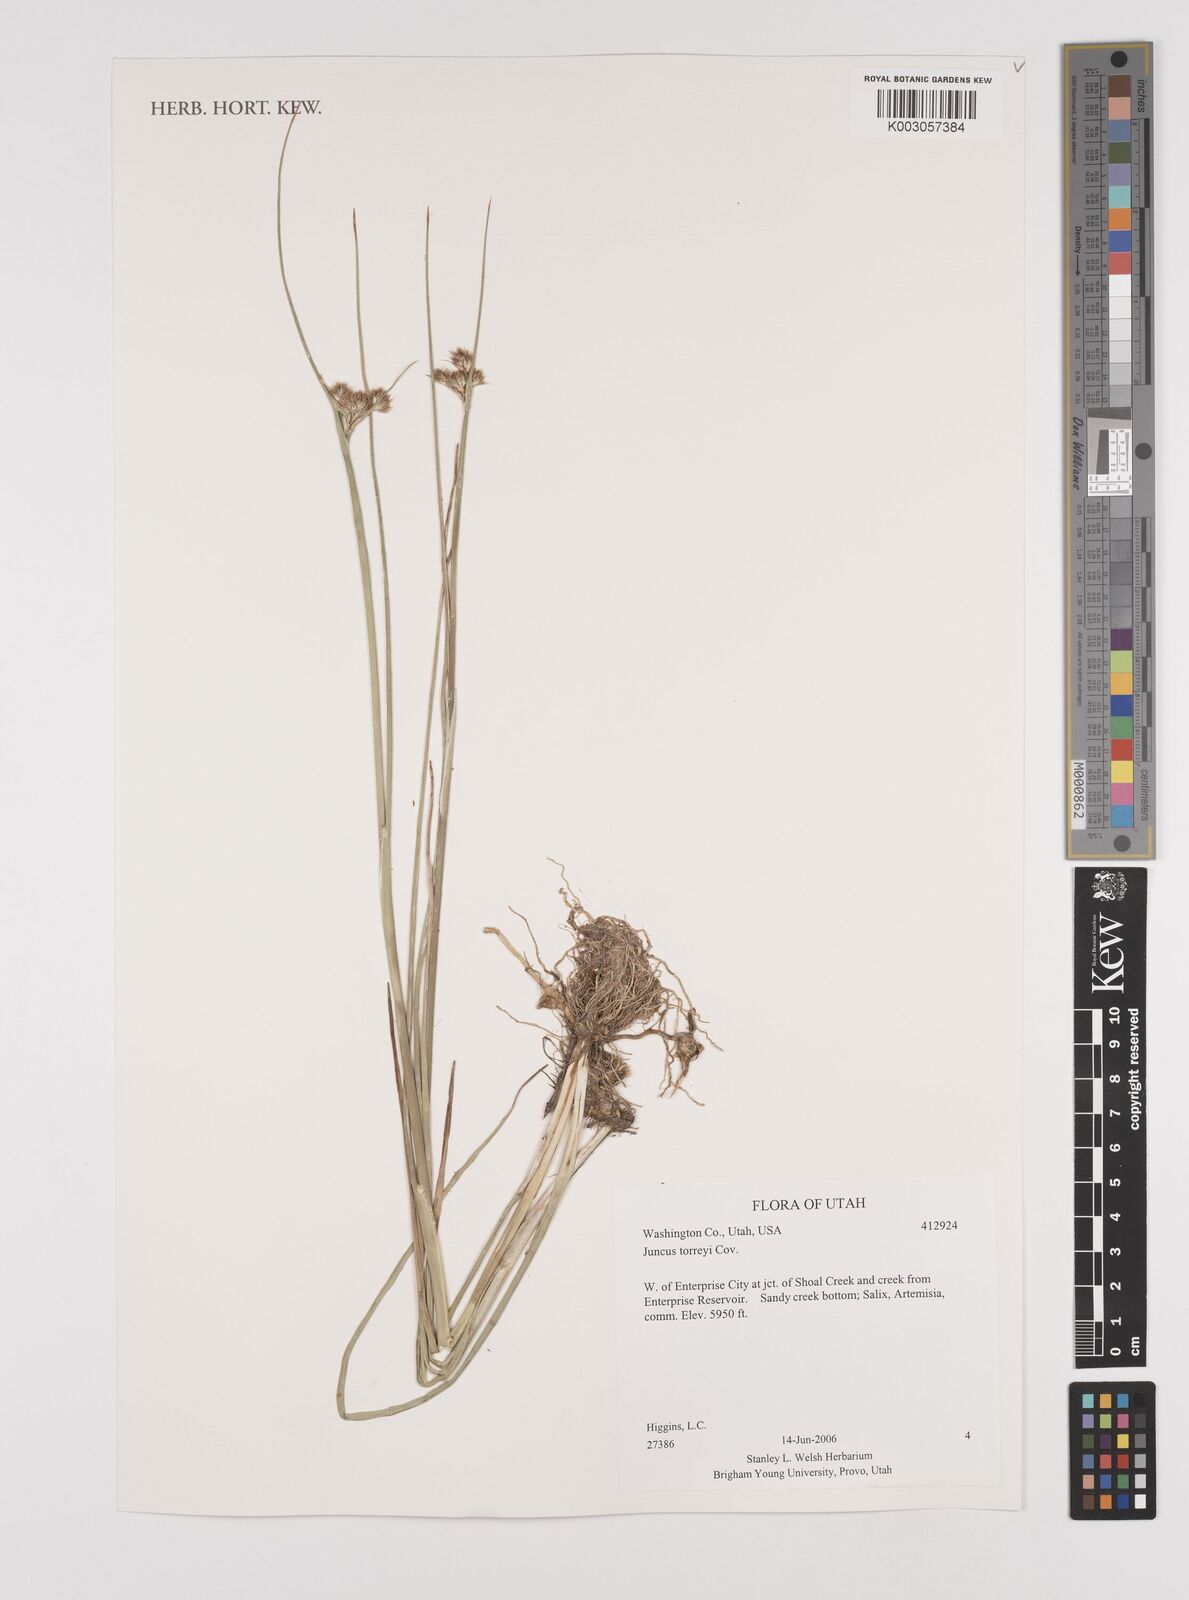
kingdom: Plantae
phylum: Tracheophyta
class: Liliopsida
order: Poales
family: Juncaceae
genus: Juncus
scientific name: Juncus torreyi
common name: Torrey's rush
